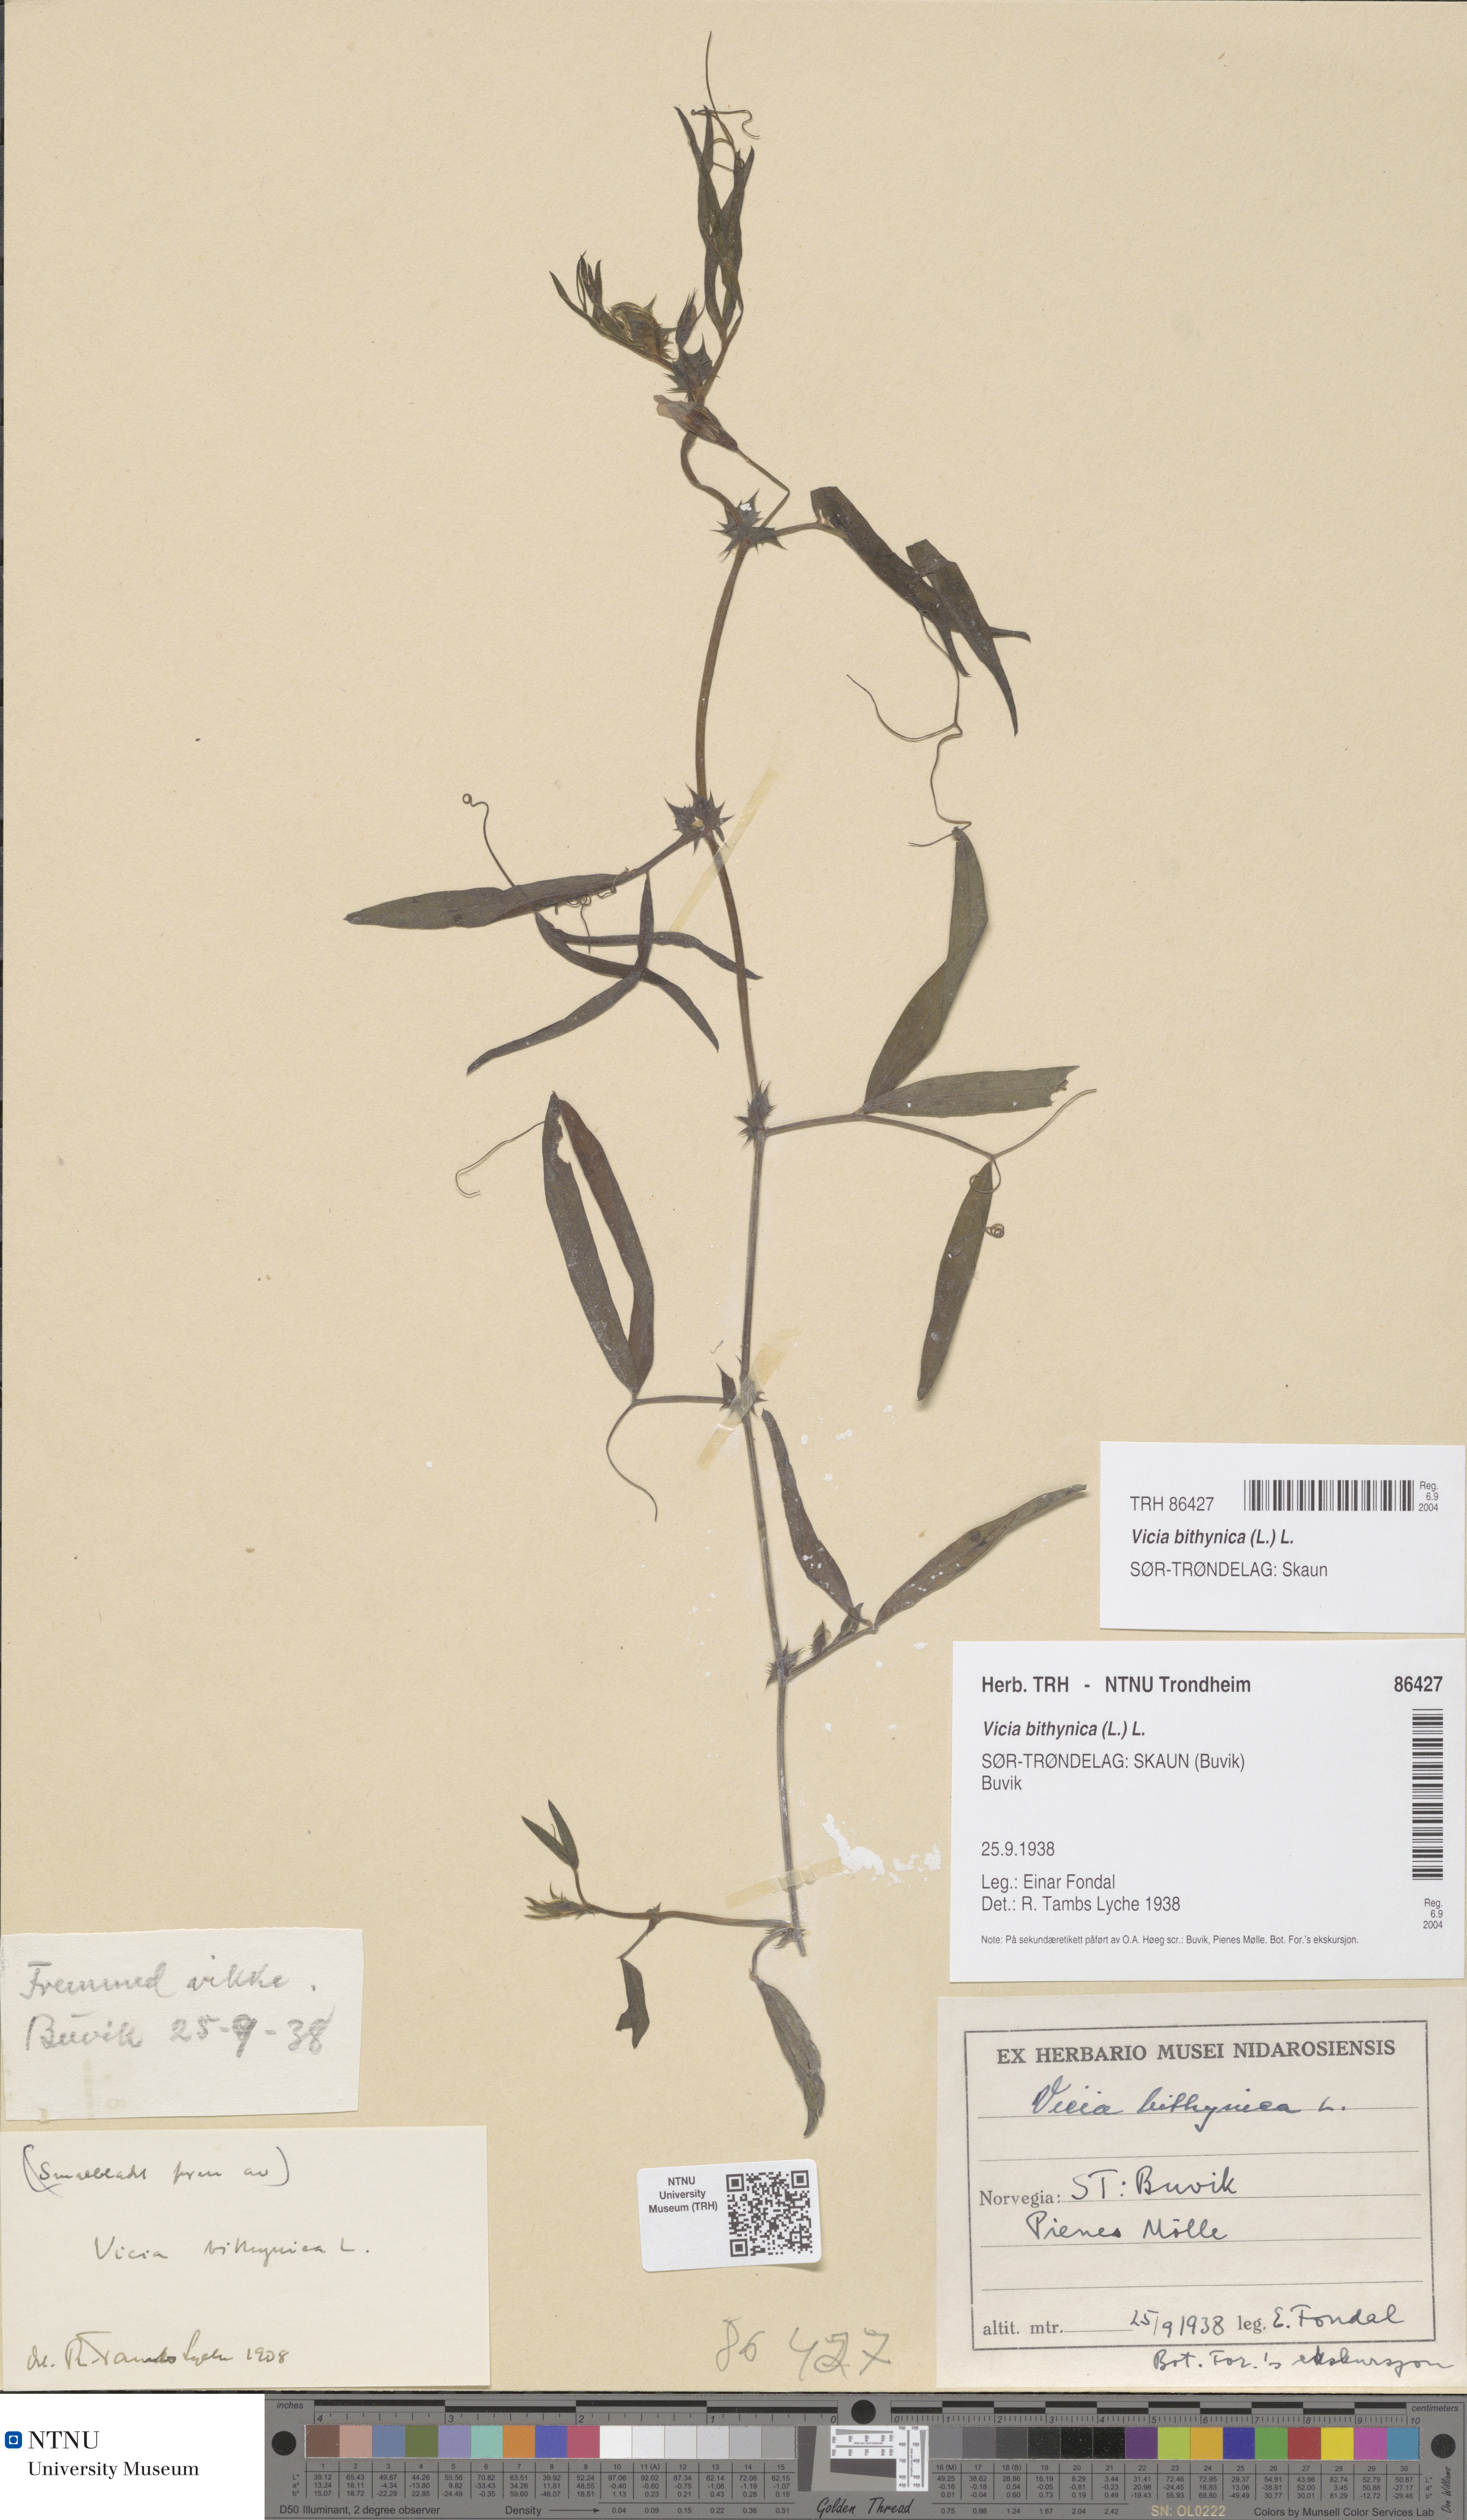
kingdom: Plantae
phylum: Tracheophyta
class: Magnoliopsida
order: Fabales
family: Fabaceae
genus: Vicia
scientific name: Vicia bithynica
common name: Bithynian vetch
